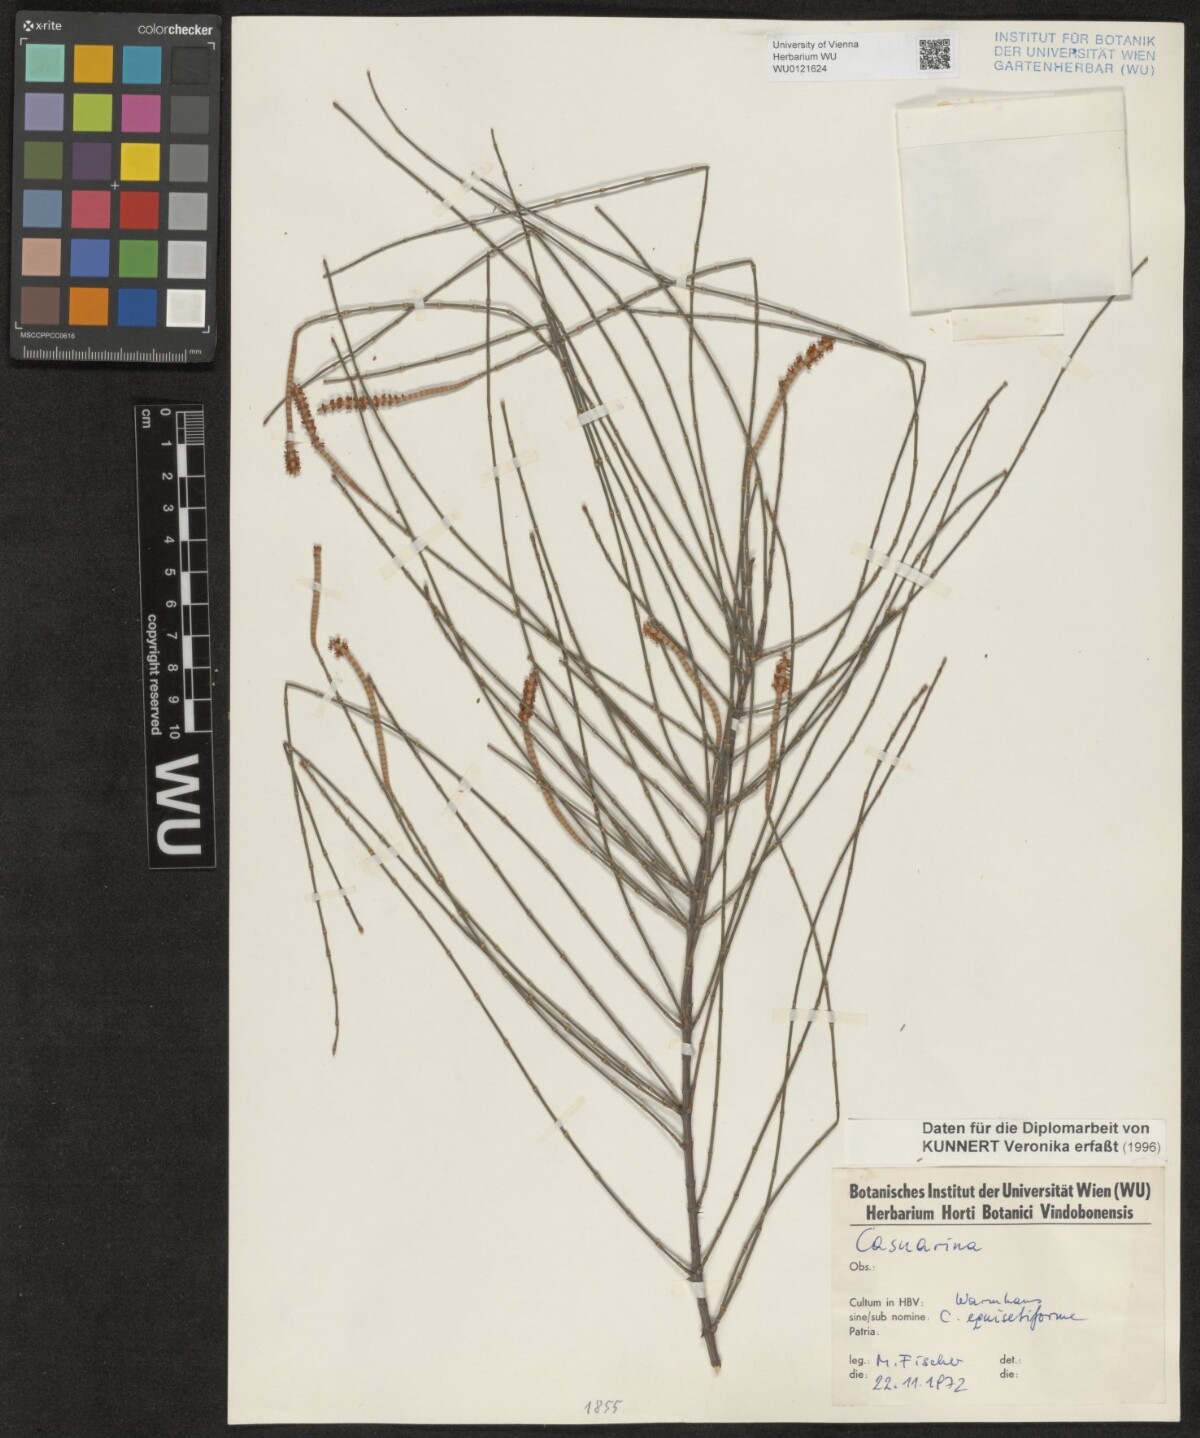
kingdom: Plantae
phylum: Tracheophyta
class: Magnoliopsida
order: Fagales
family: Casuarinaceae
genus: Casuarina
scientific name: Casuarina equisetifolia
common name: Beach sheoak
